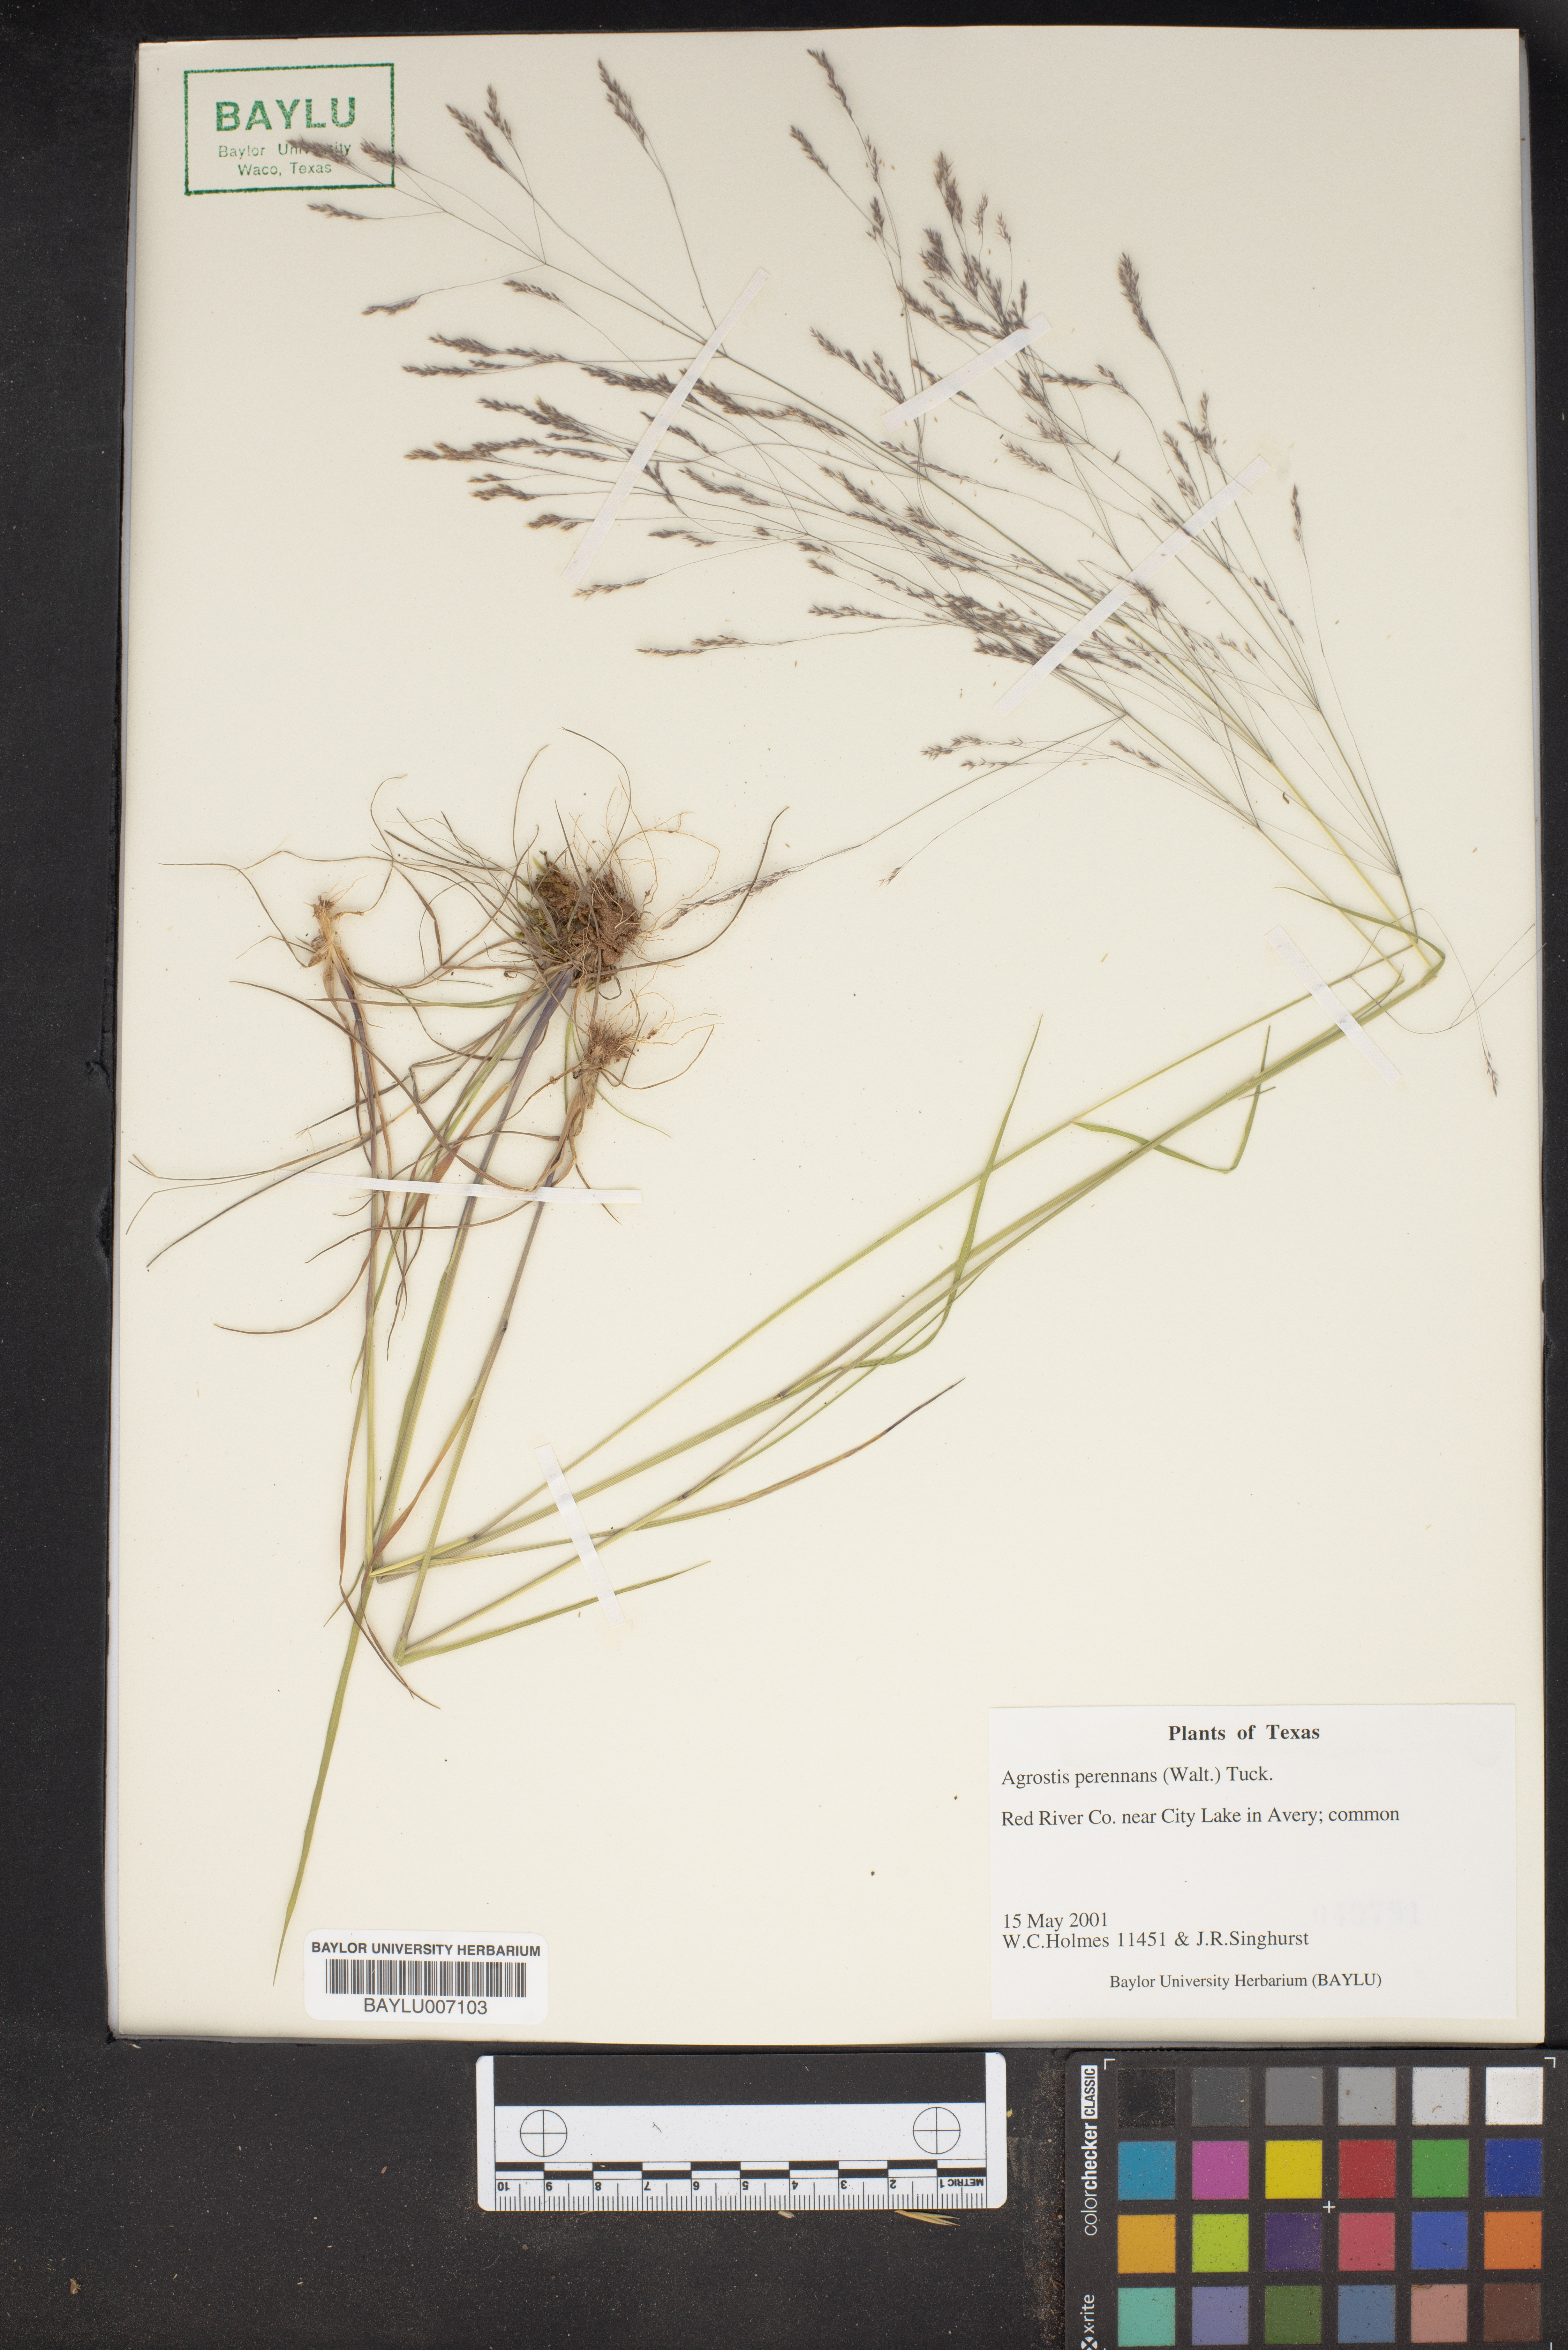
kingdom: Plantae
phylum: Tracheophyta
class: Liliopsida
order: Poales
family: Poaceae
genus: Agrostis
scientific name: Agrostis perennans
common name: Autumn bent
